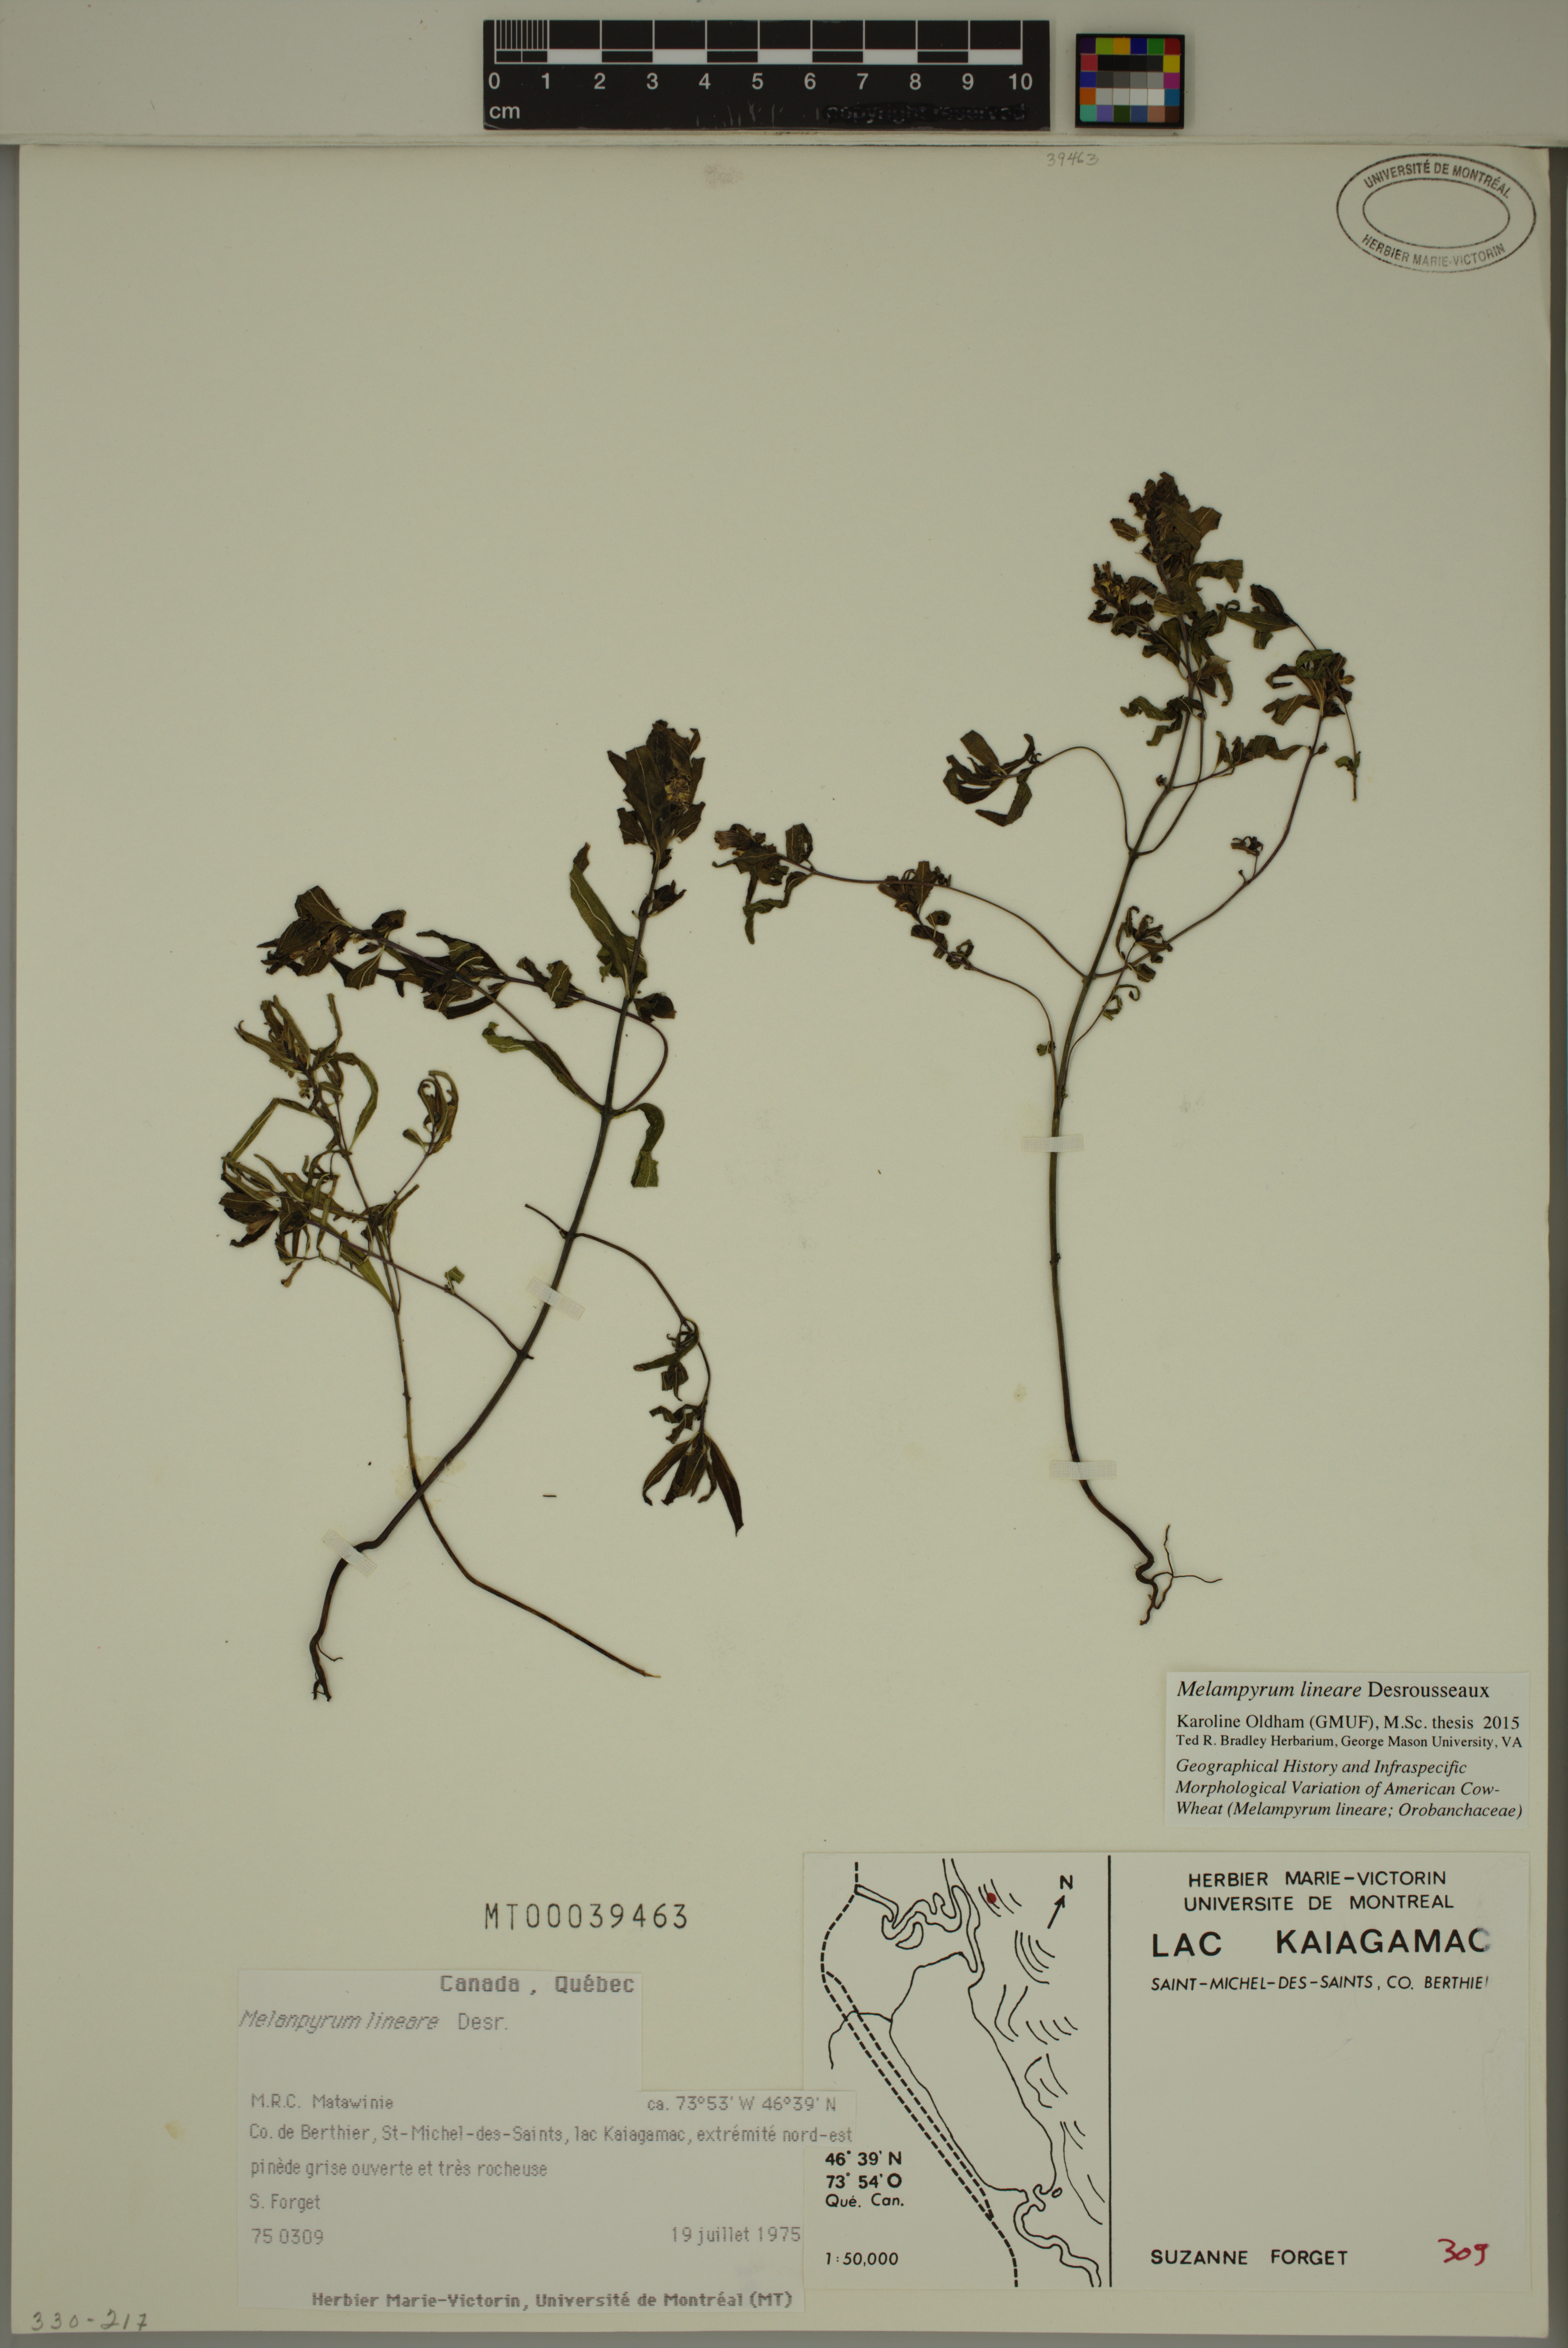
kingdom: Plantae
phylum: Tracheophyta
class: Magnoliopsida
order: Lamiales
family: Orobanchaceae
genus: Melampyrum
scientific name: Melampyrum lineare
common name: American cow-wheat
